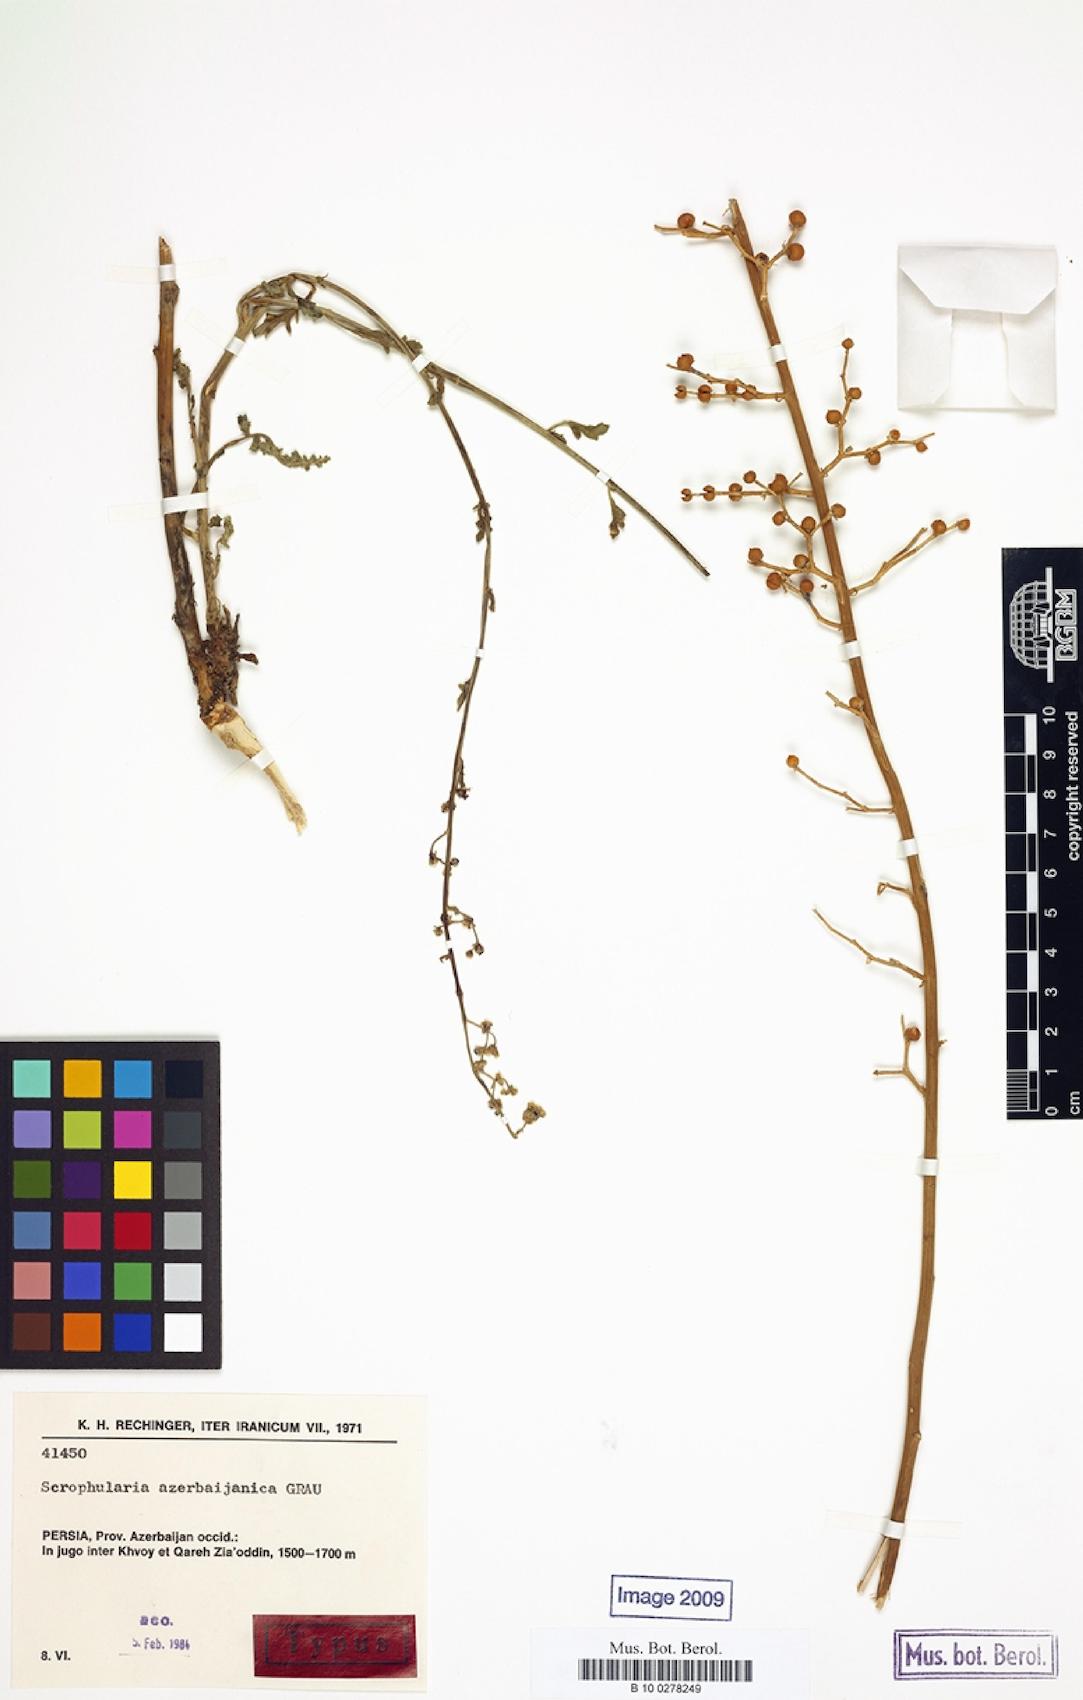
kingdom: Plantae
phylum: Tracheophyta
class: Magnoliopsida
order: Lamiales
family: Scrophulariaceae
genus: Scrophularia
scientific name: Scrophularia azerbaijanica
